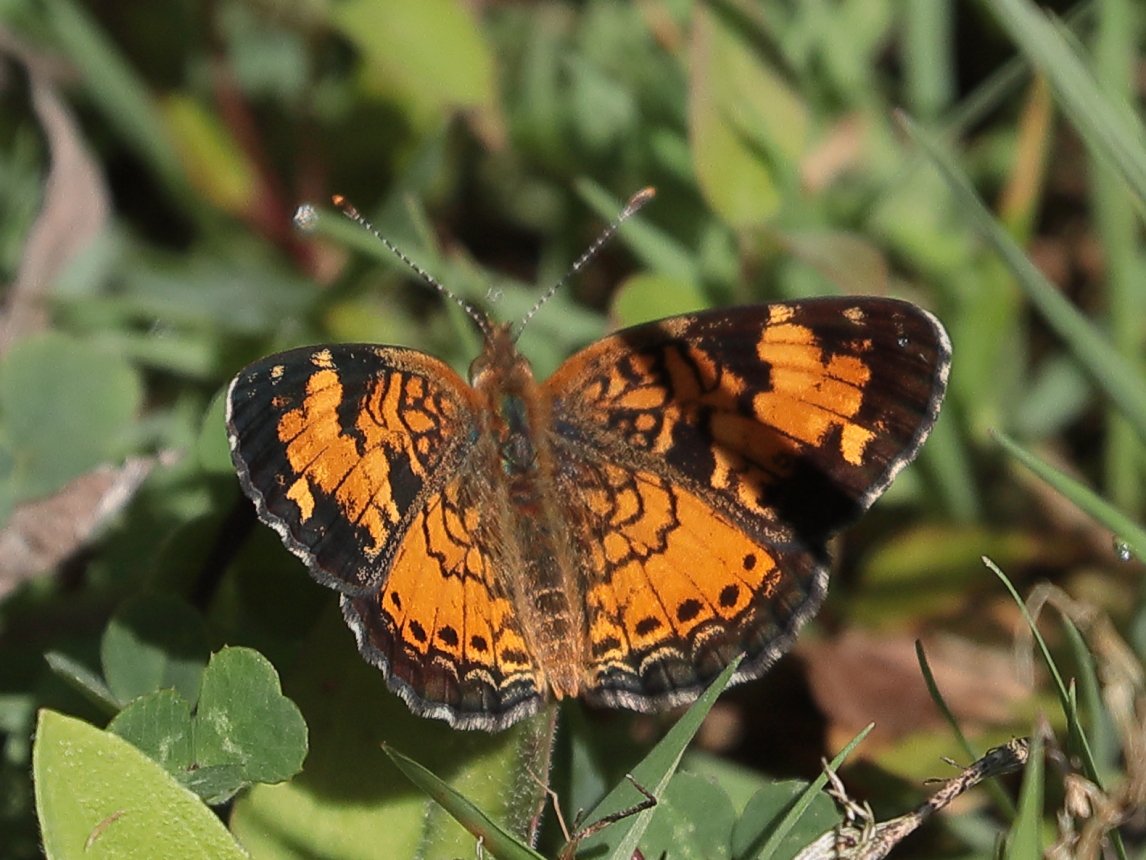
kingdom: Animalia
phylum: Arthropoda
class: Insecta
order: Lepidoptera
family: Nymphalidae
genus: Phyciodes
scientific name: Phyciodes tharos
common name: Northern Crescent
